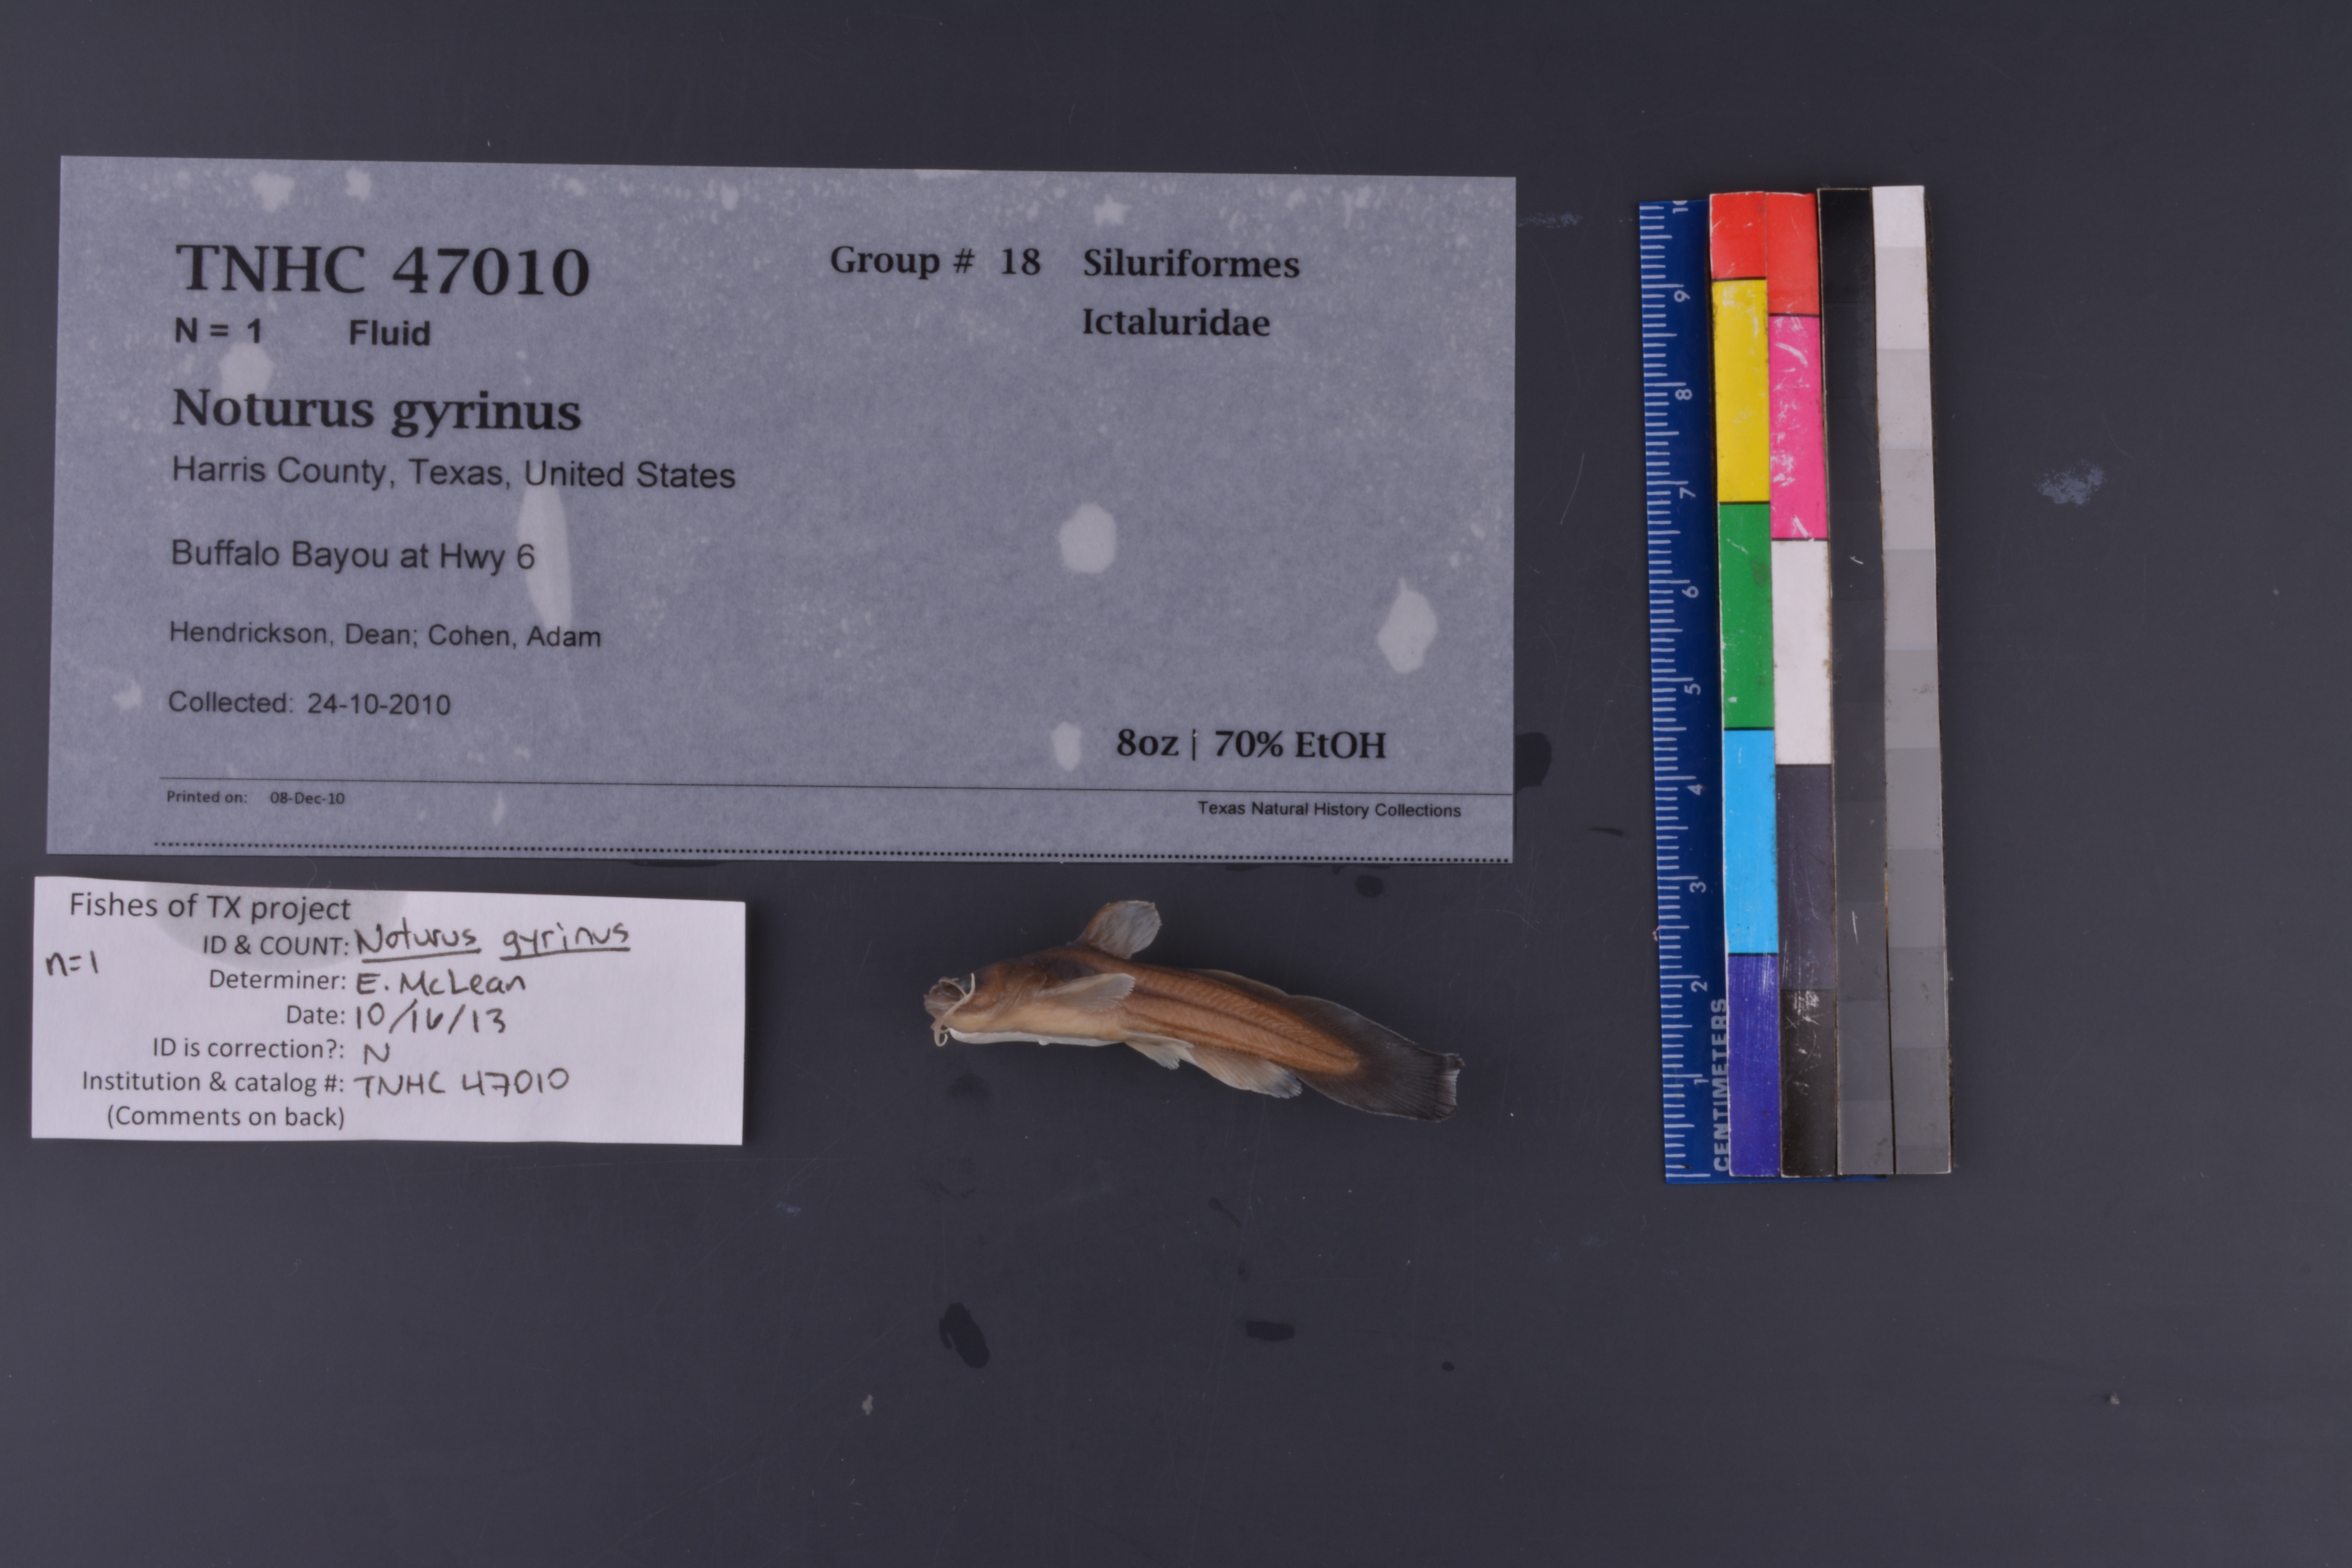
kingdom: Animalia
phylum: Chordata
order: Siluriformes
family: Ictaluridae
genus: Noturus
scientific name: Noturus gyrinus
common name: Tadpole madtom
